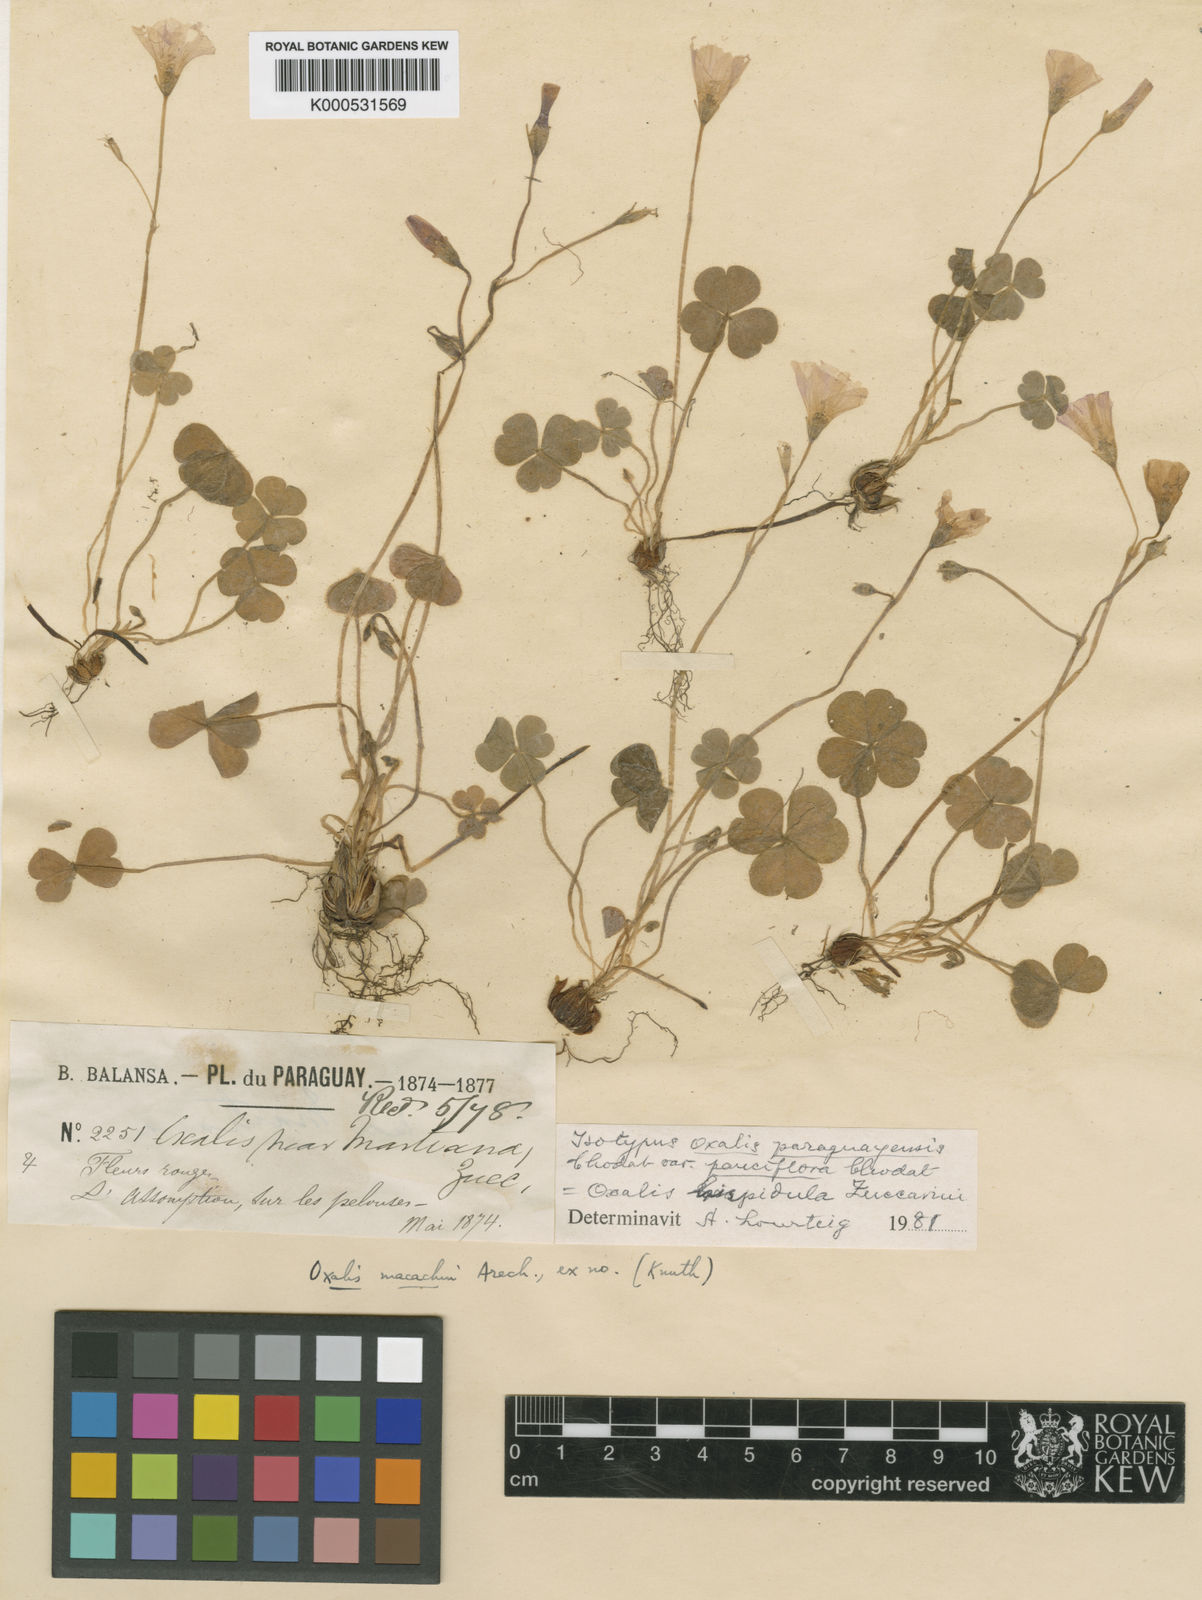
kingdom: Plantae
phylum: Tracheophyta
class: Magnoliopsida
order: Oxalidales
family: Oxalidaceae
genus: Oxalis
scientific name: Oxalis hispidula
